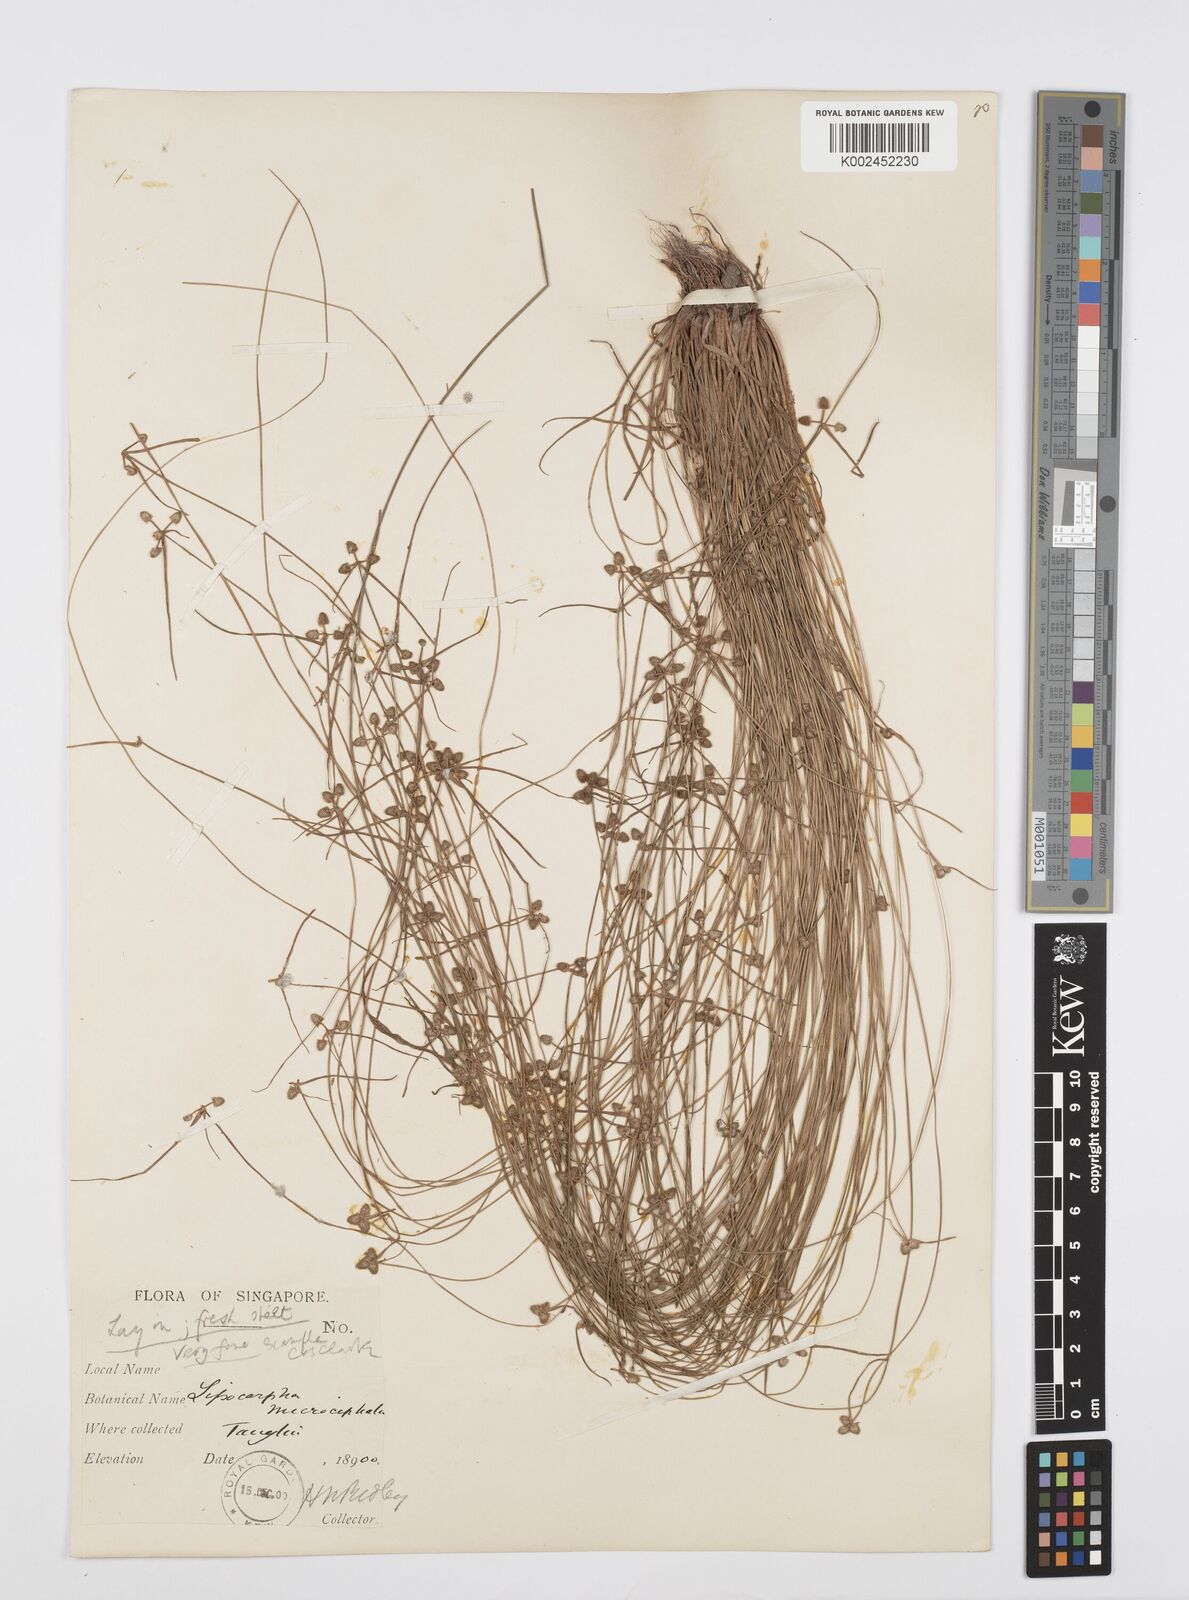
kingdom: Plantae
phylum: Tracheophyta
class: Liliopsida
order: Poales
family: Cyperaceae
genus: Cyperus
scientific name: Cyperus microcephalus
